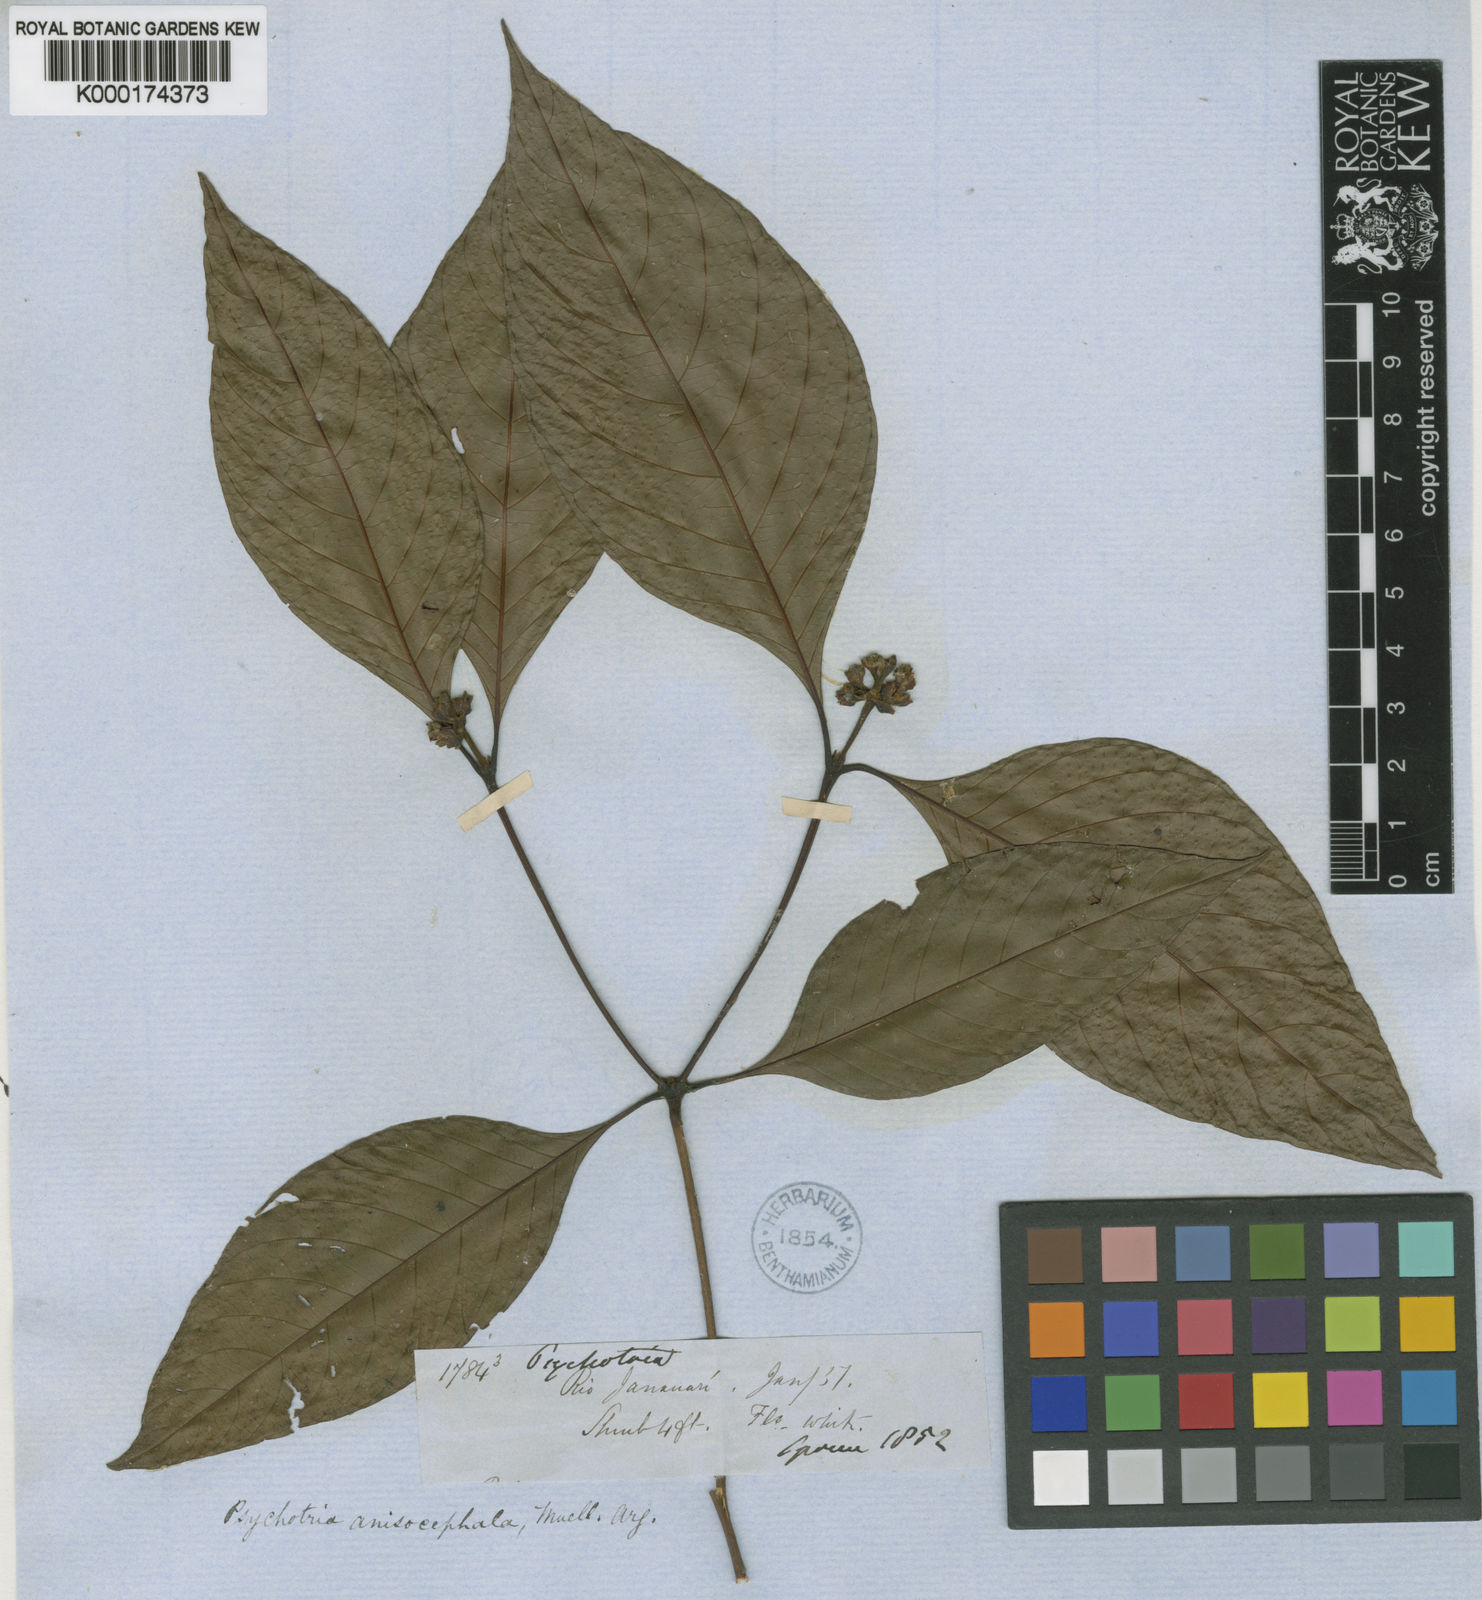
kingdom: Plantae
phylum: Tracheophyta
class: Magnoliopsida
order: Gentianales
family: Rubiaceae
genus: Psychotria
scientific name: Psychotria
